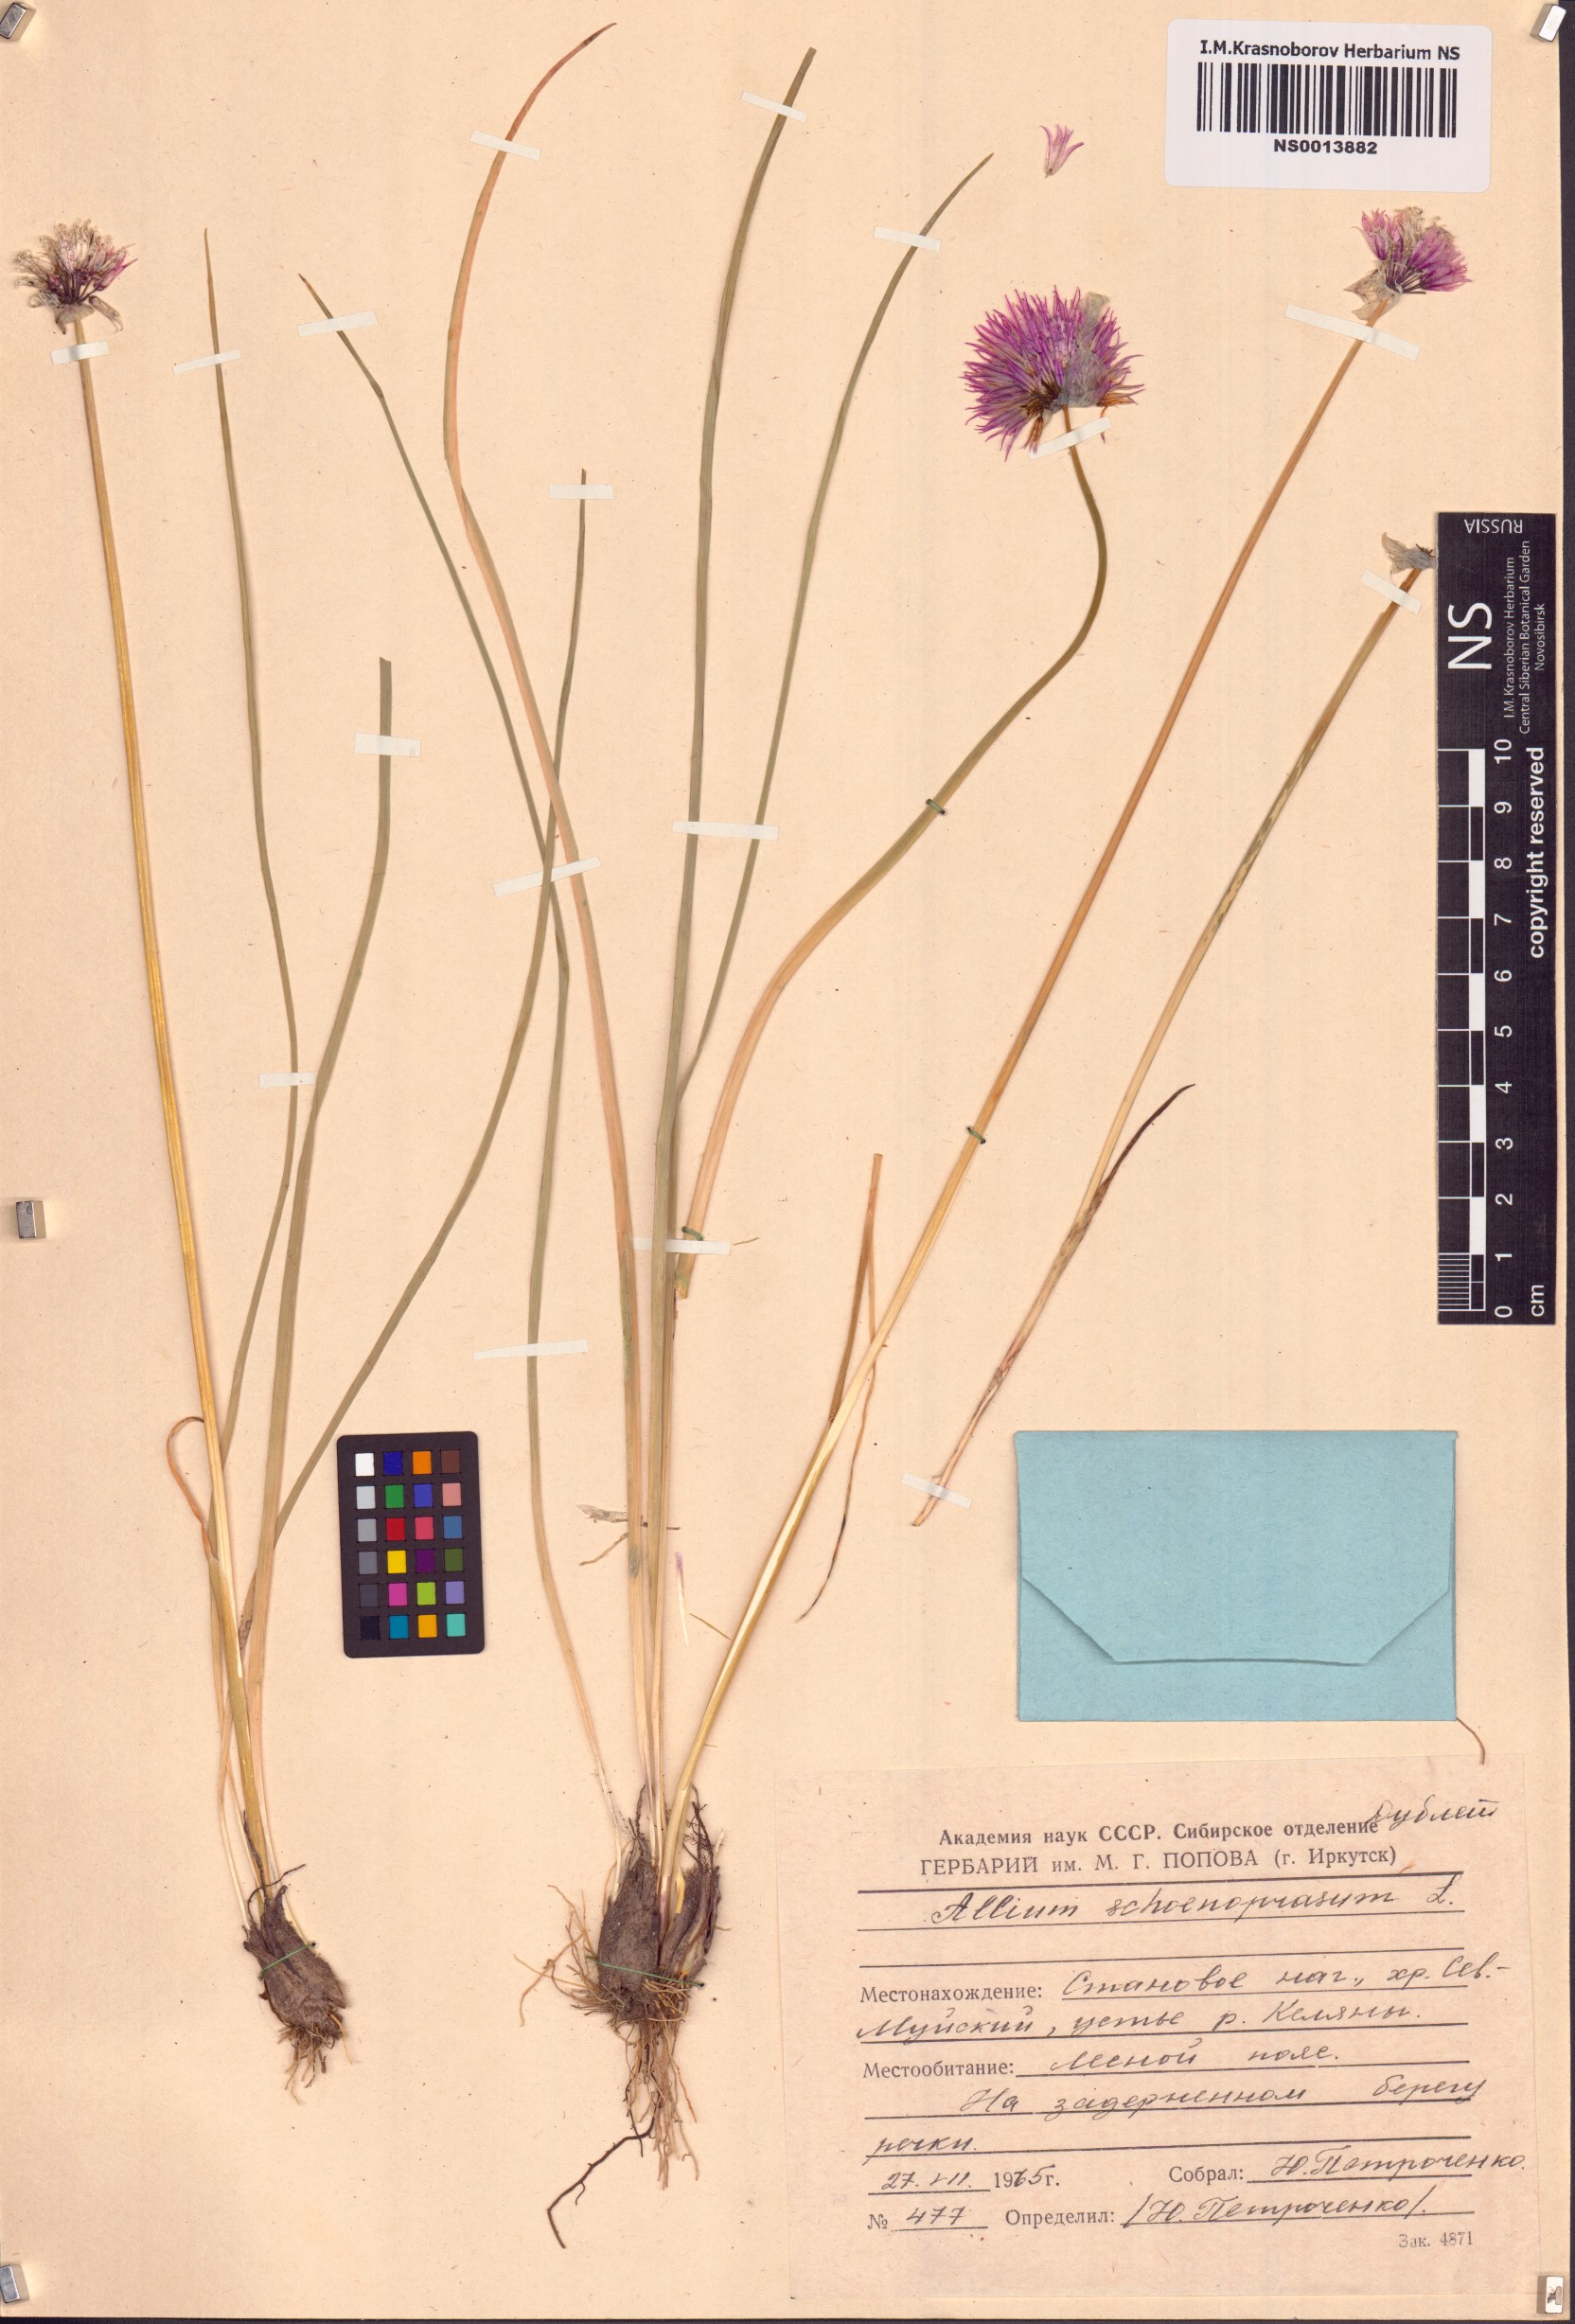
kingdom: Plantae
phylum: Tracheophyta
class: Liliopsida
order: Asparagales
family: Amaryllidaceae
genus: Allium
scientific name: Allium schoenoprasum
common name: Chives
